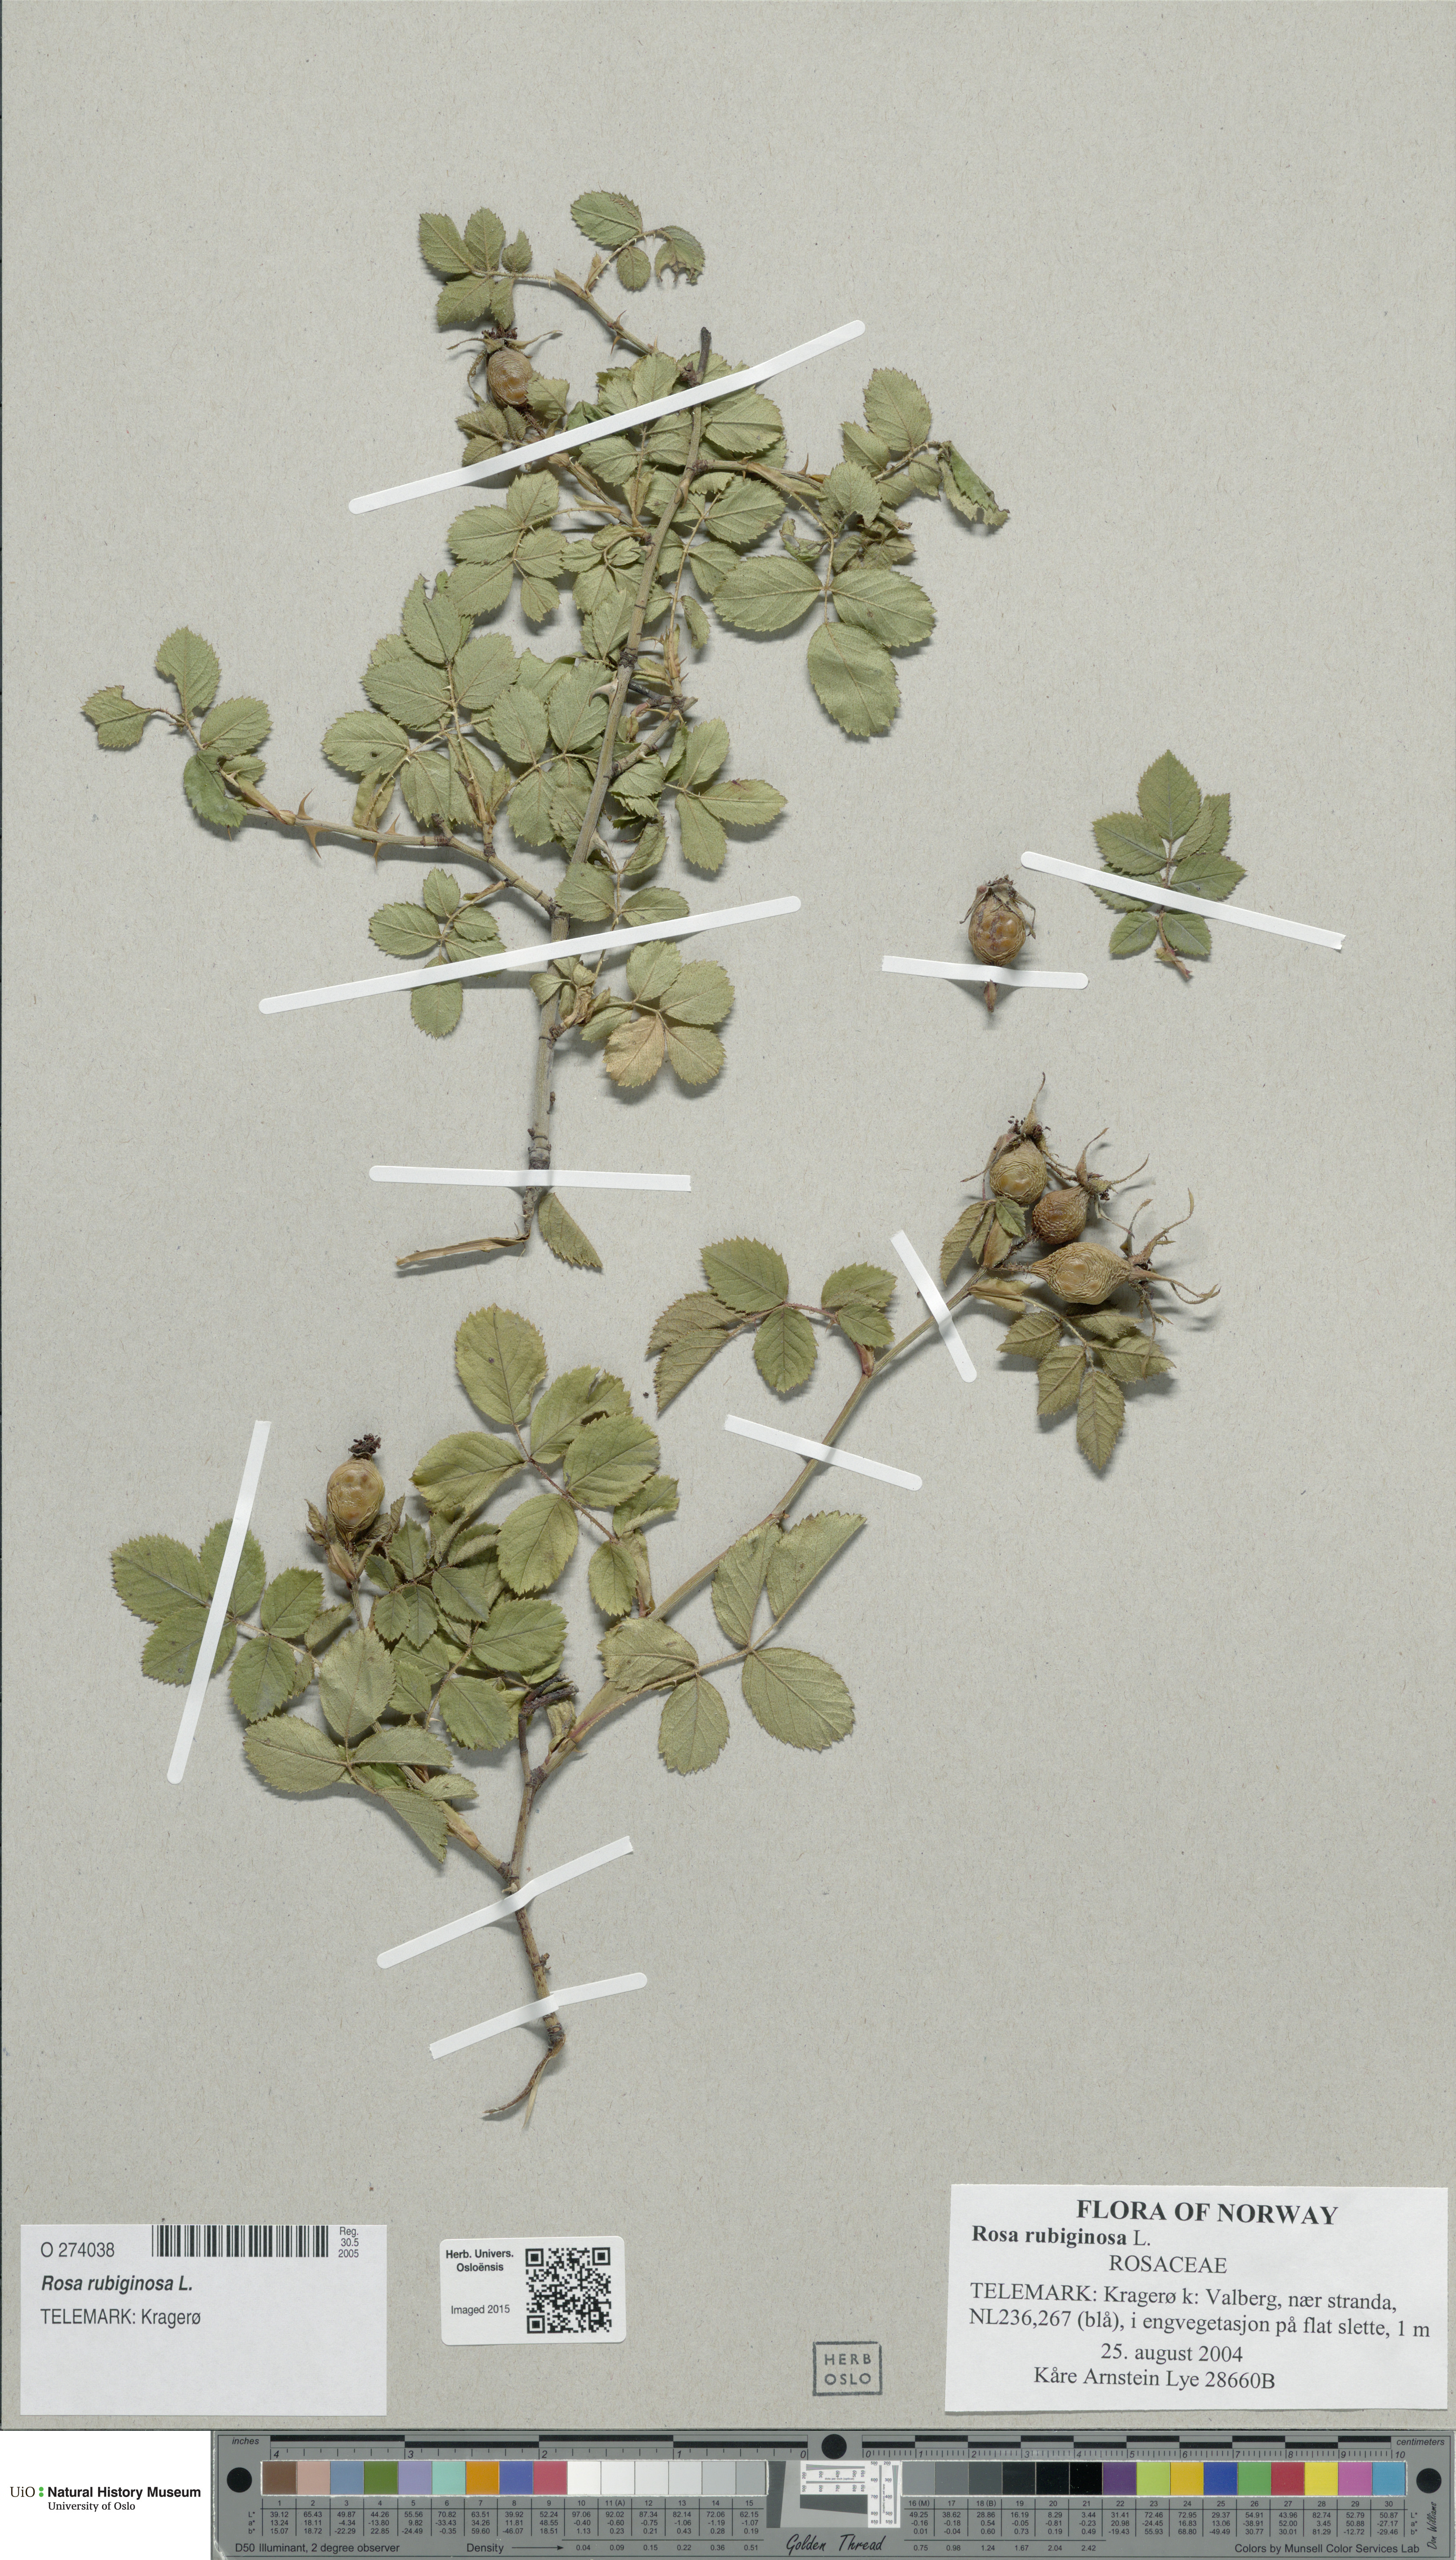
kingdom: Plantae
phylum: Tracheophyta
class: Magnoliopsida
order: Rosales
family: Rosaceae
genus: Rosa
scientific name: Rosa rubiginosa
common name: Sweet-briar
